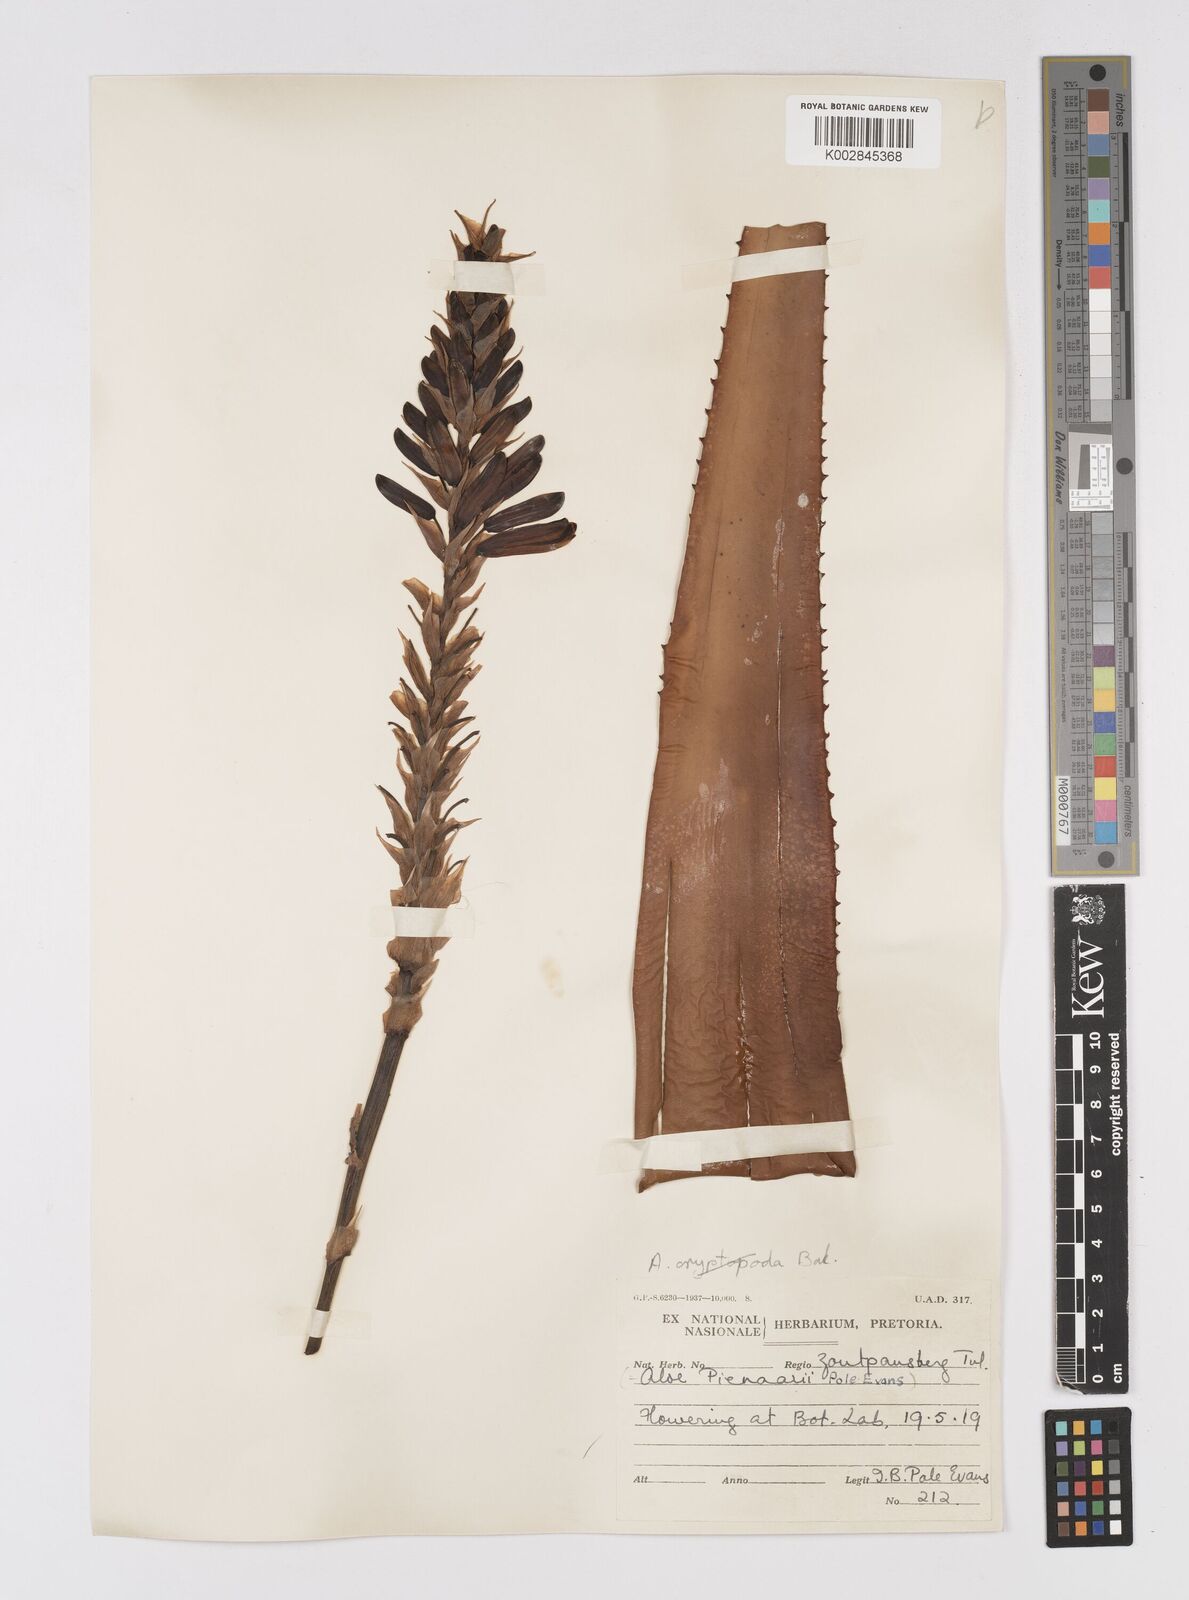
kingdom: Plantae
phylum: Tracheophyta
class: Liliopsida
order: Asparagales
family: Asphodelaceae
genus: Aloe
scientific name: Aloe pienaarii
